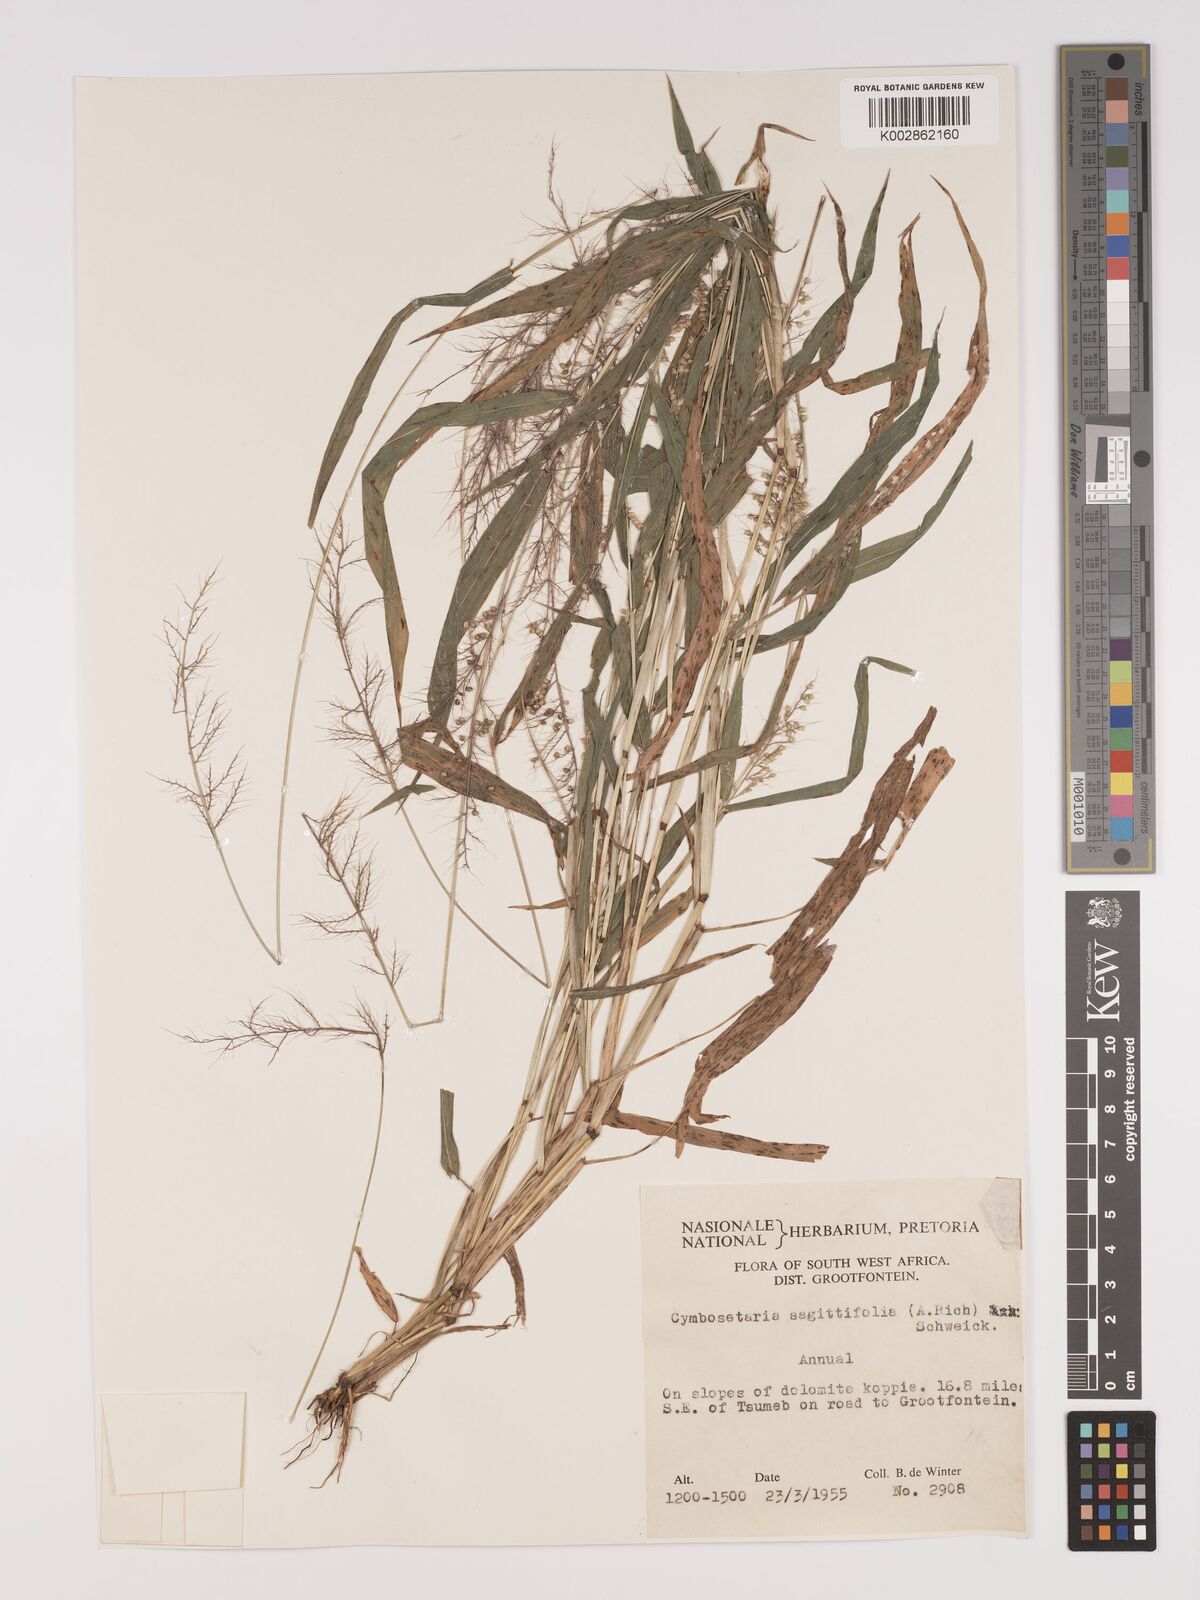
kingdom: Plantae
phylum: Tracheophyta
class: Liliopsida
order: Poales
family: Poaceae
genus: Setaria
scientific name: Setaria sagittifolia
